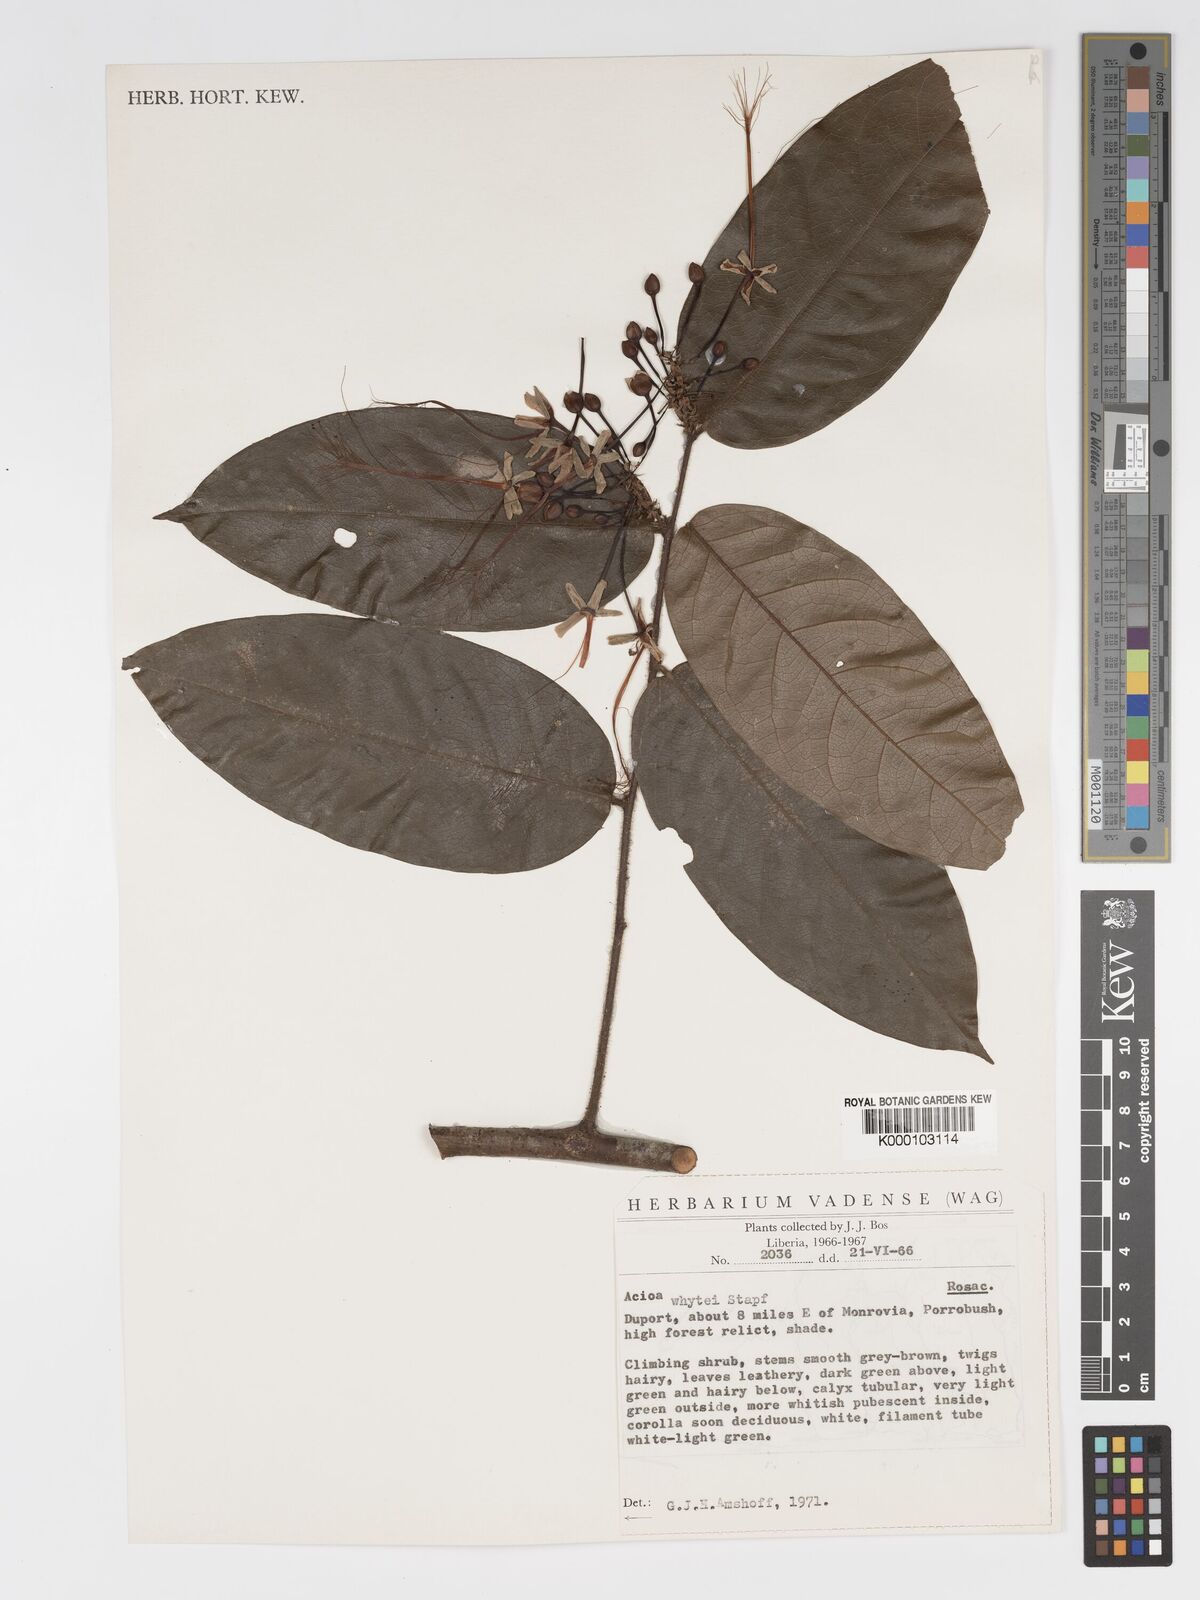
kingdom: Plantae
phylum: Tracheophyta
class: Magnoliopsida
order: Malpighiales
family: Chrysobalanaceae
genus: Dactyladenia
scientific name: Dactyladenia whytei
